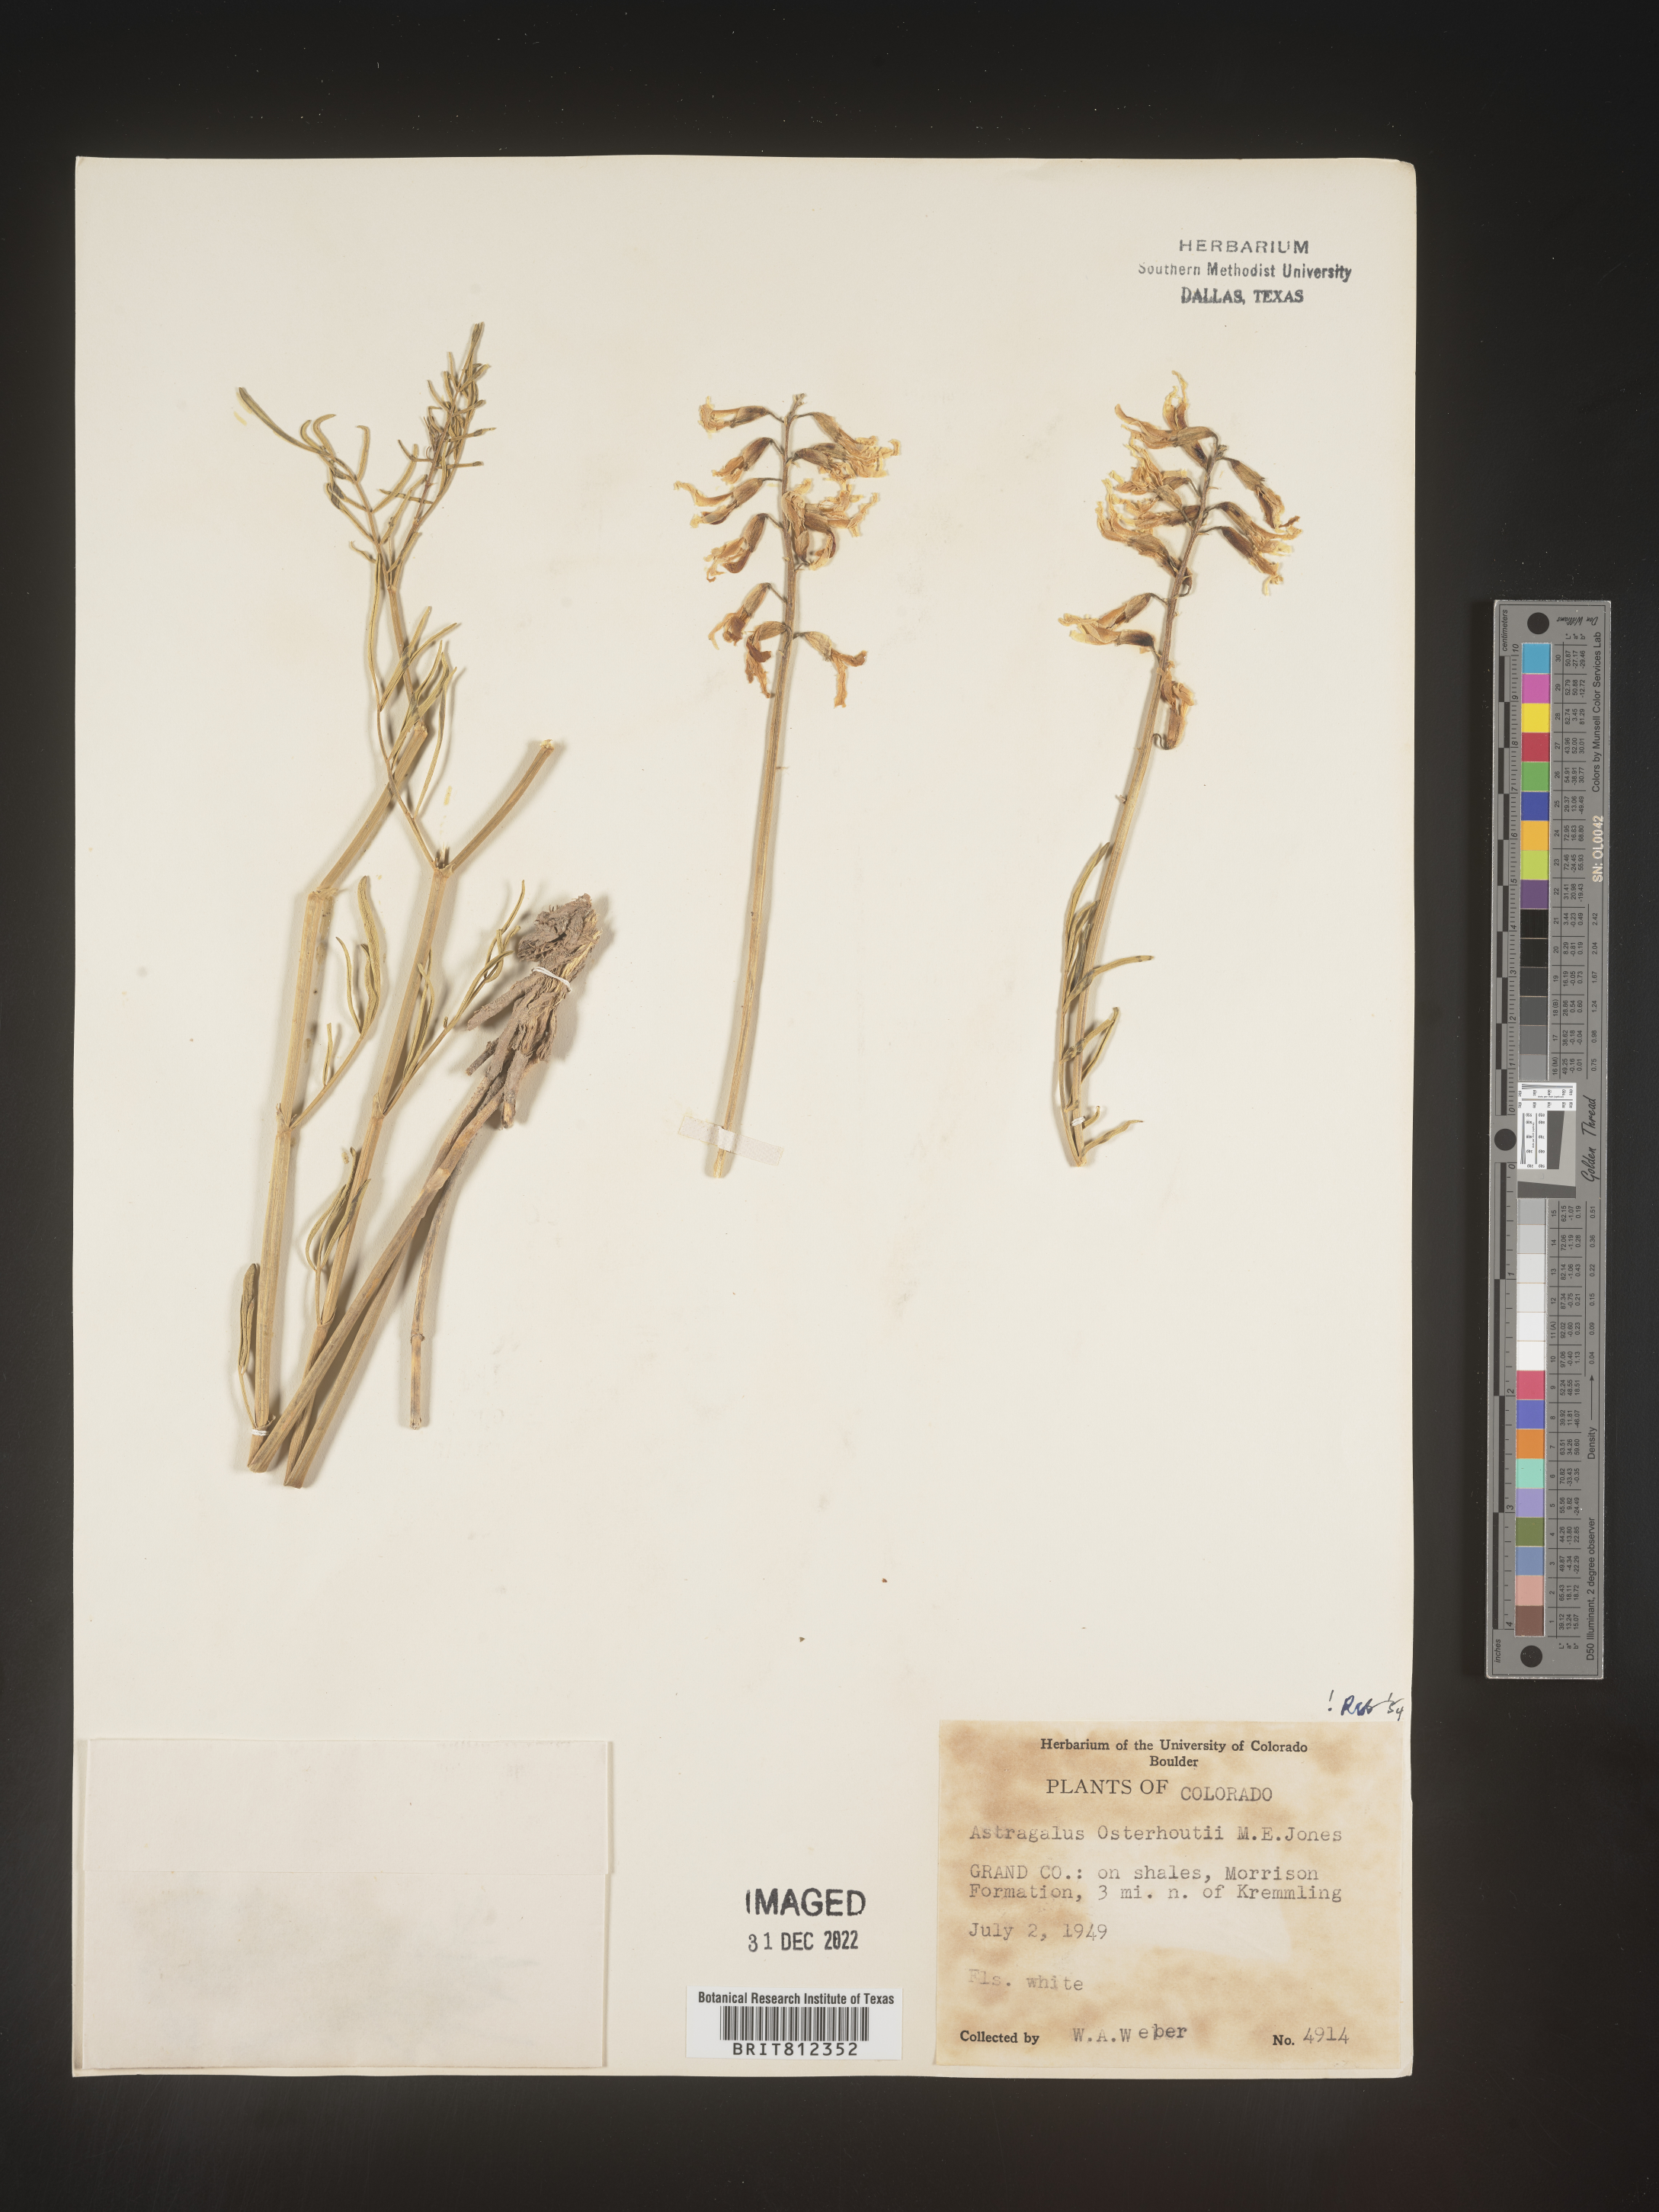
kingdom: Plantae
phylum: Tracheophyta
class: Magnoliopsida
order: Fabales
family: Fabaceae
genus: Astragalus
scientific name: Astragalus
